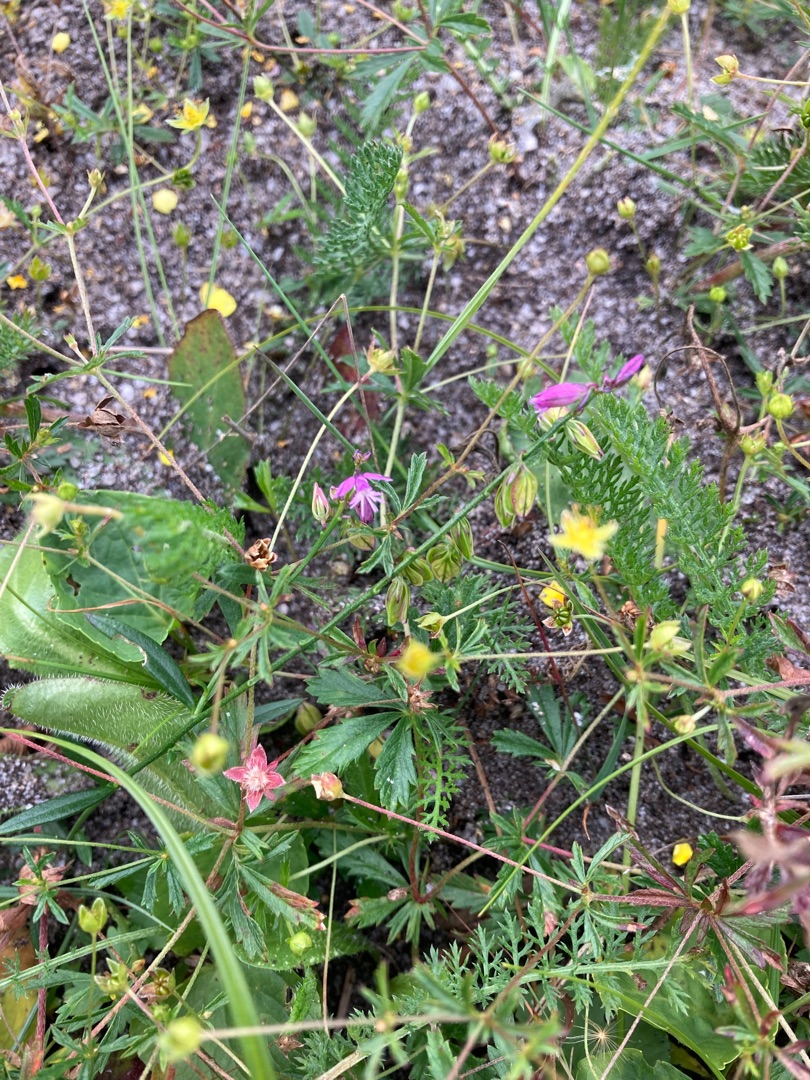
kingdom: Plantae
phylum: Tracheophyta
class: Magnoliopsida
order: Fabales
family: Polygalaceae
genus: Polygala
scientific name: Polygala vulgaris
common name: Almindelig mælkeurt
